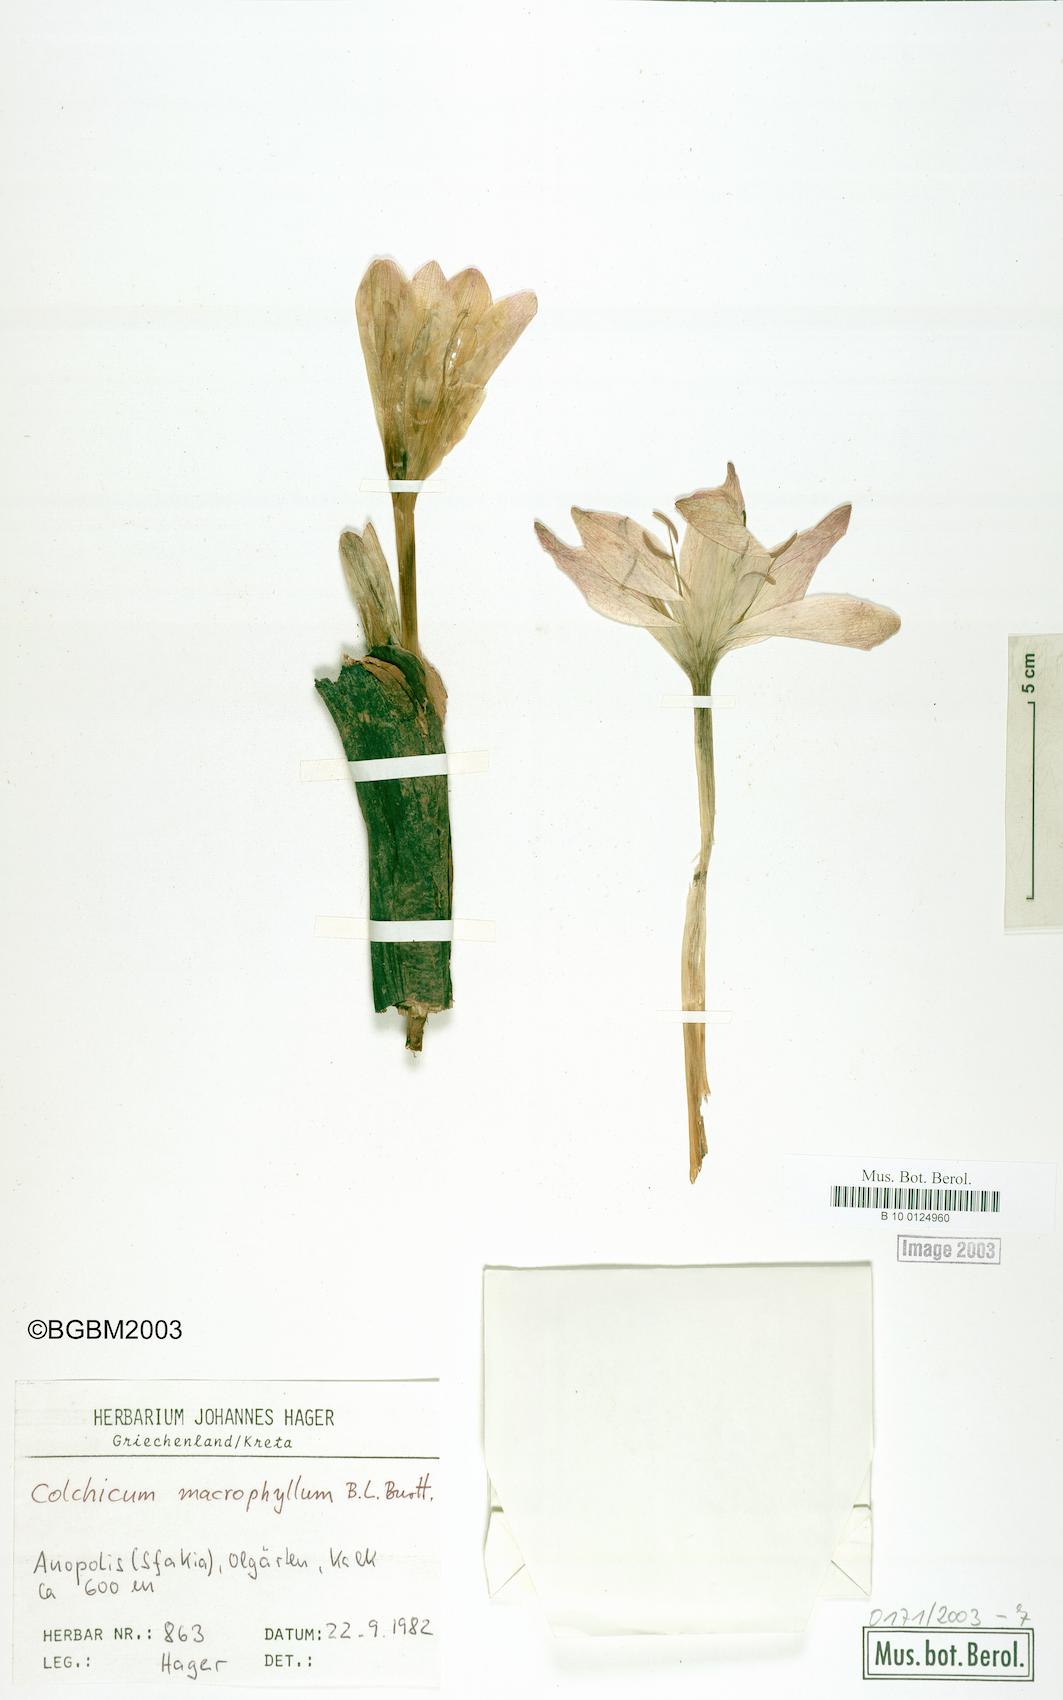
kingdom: Plantae
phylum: Tracheophyta
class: Liliopsida
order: Liliales
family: Colchicaceae
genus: Colchicum
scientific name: Colchicum macrophyllum
